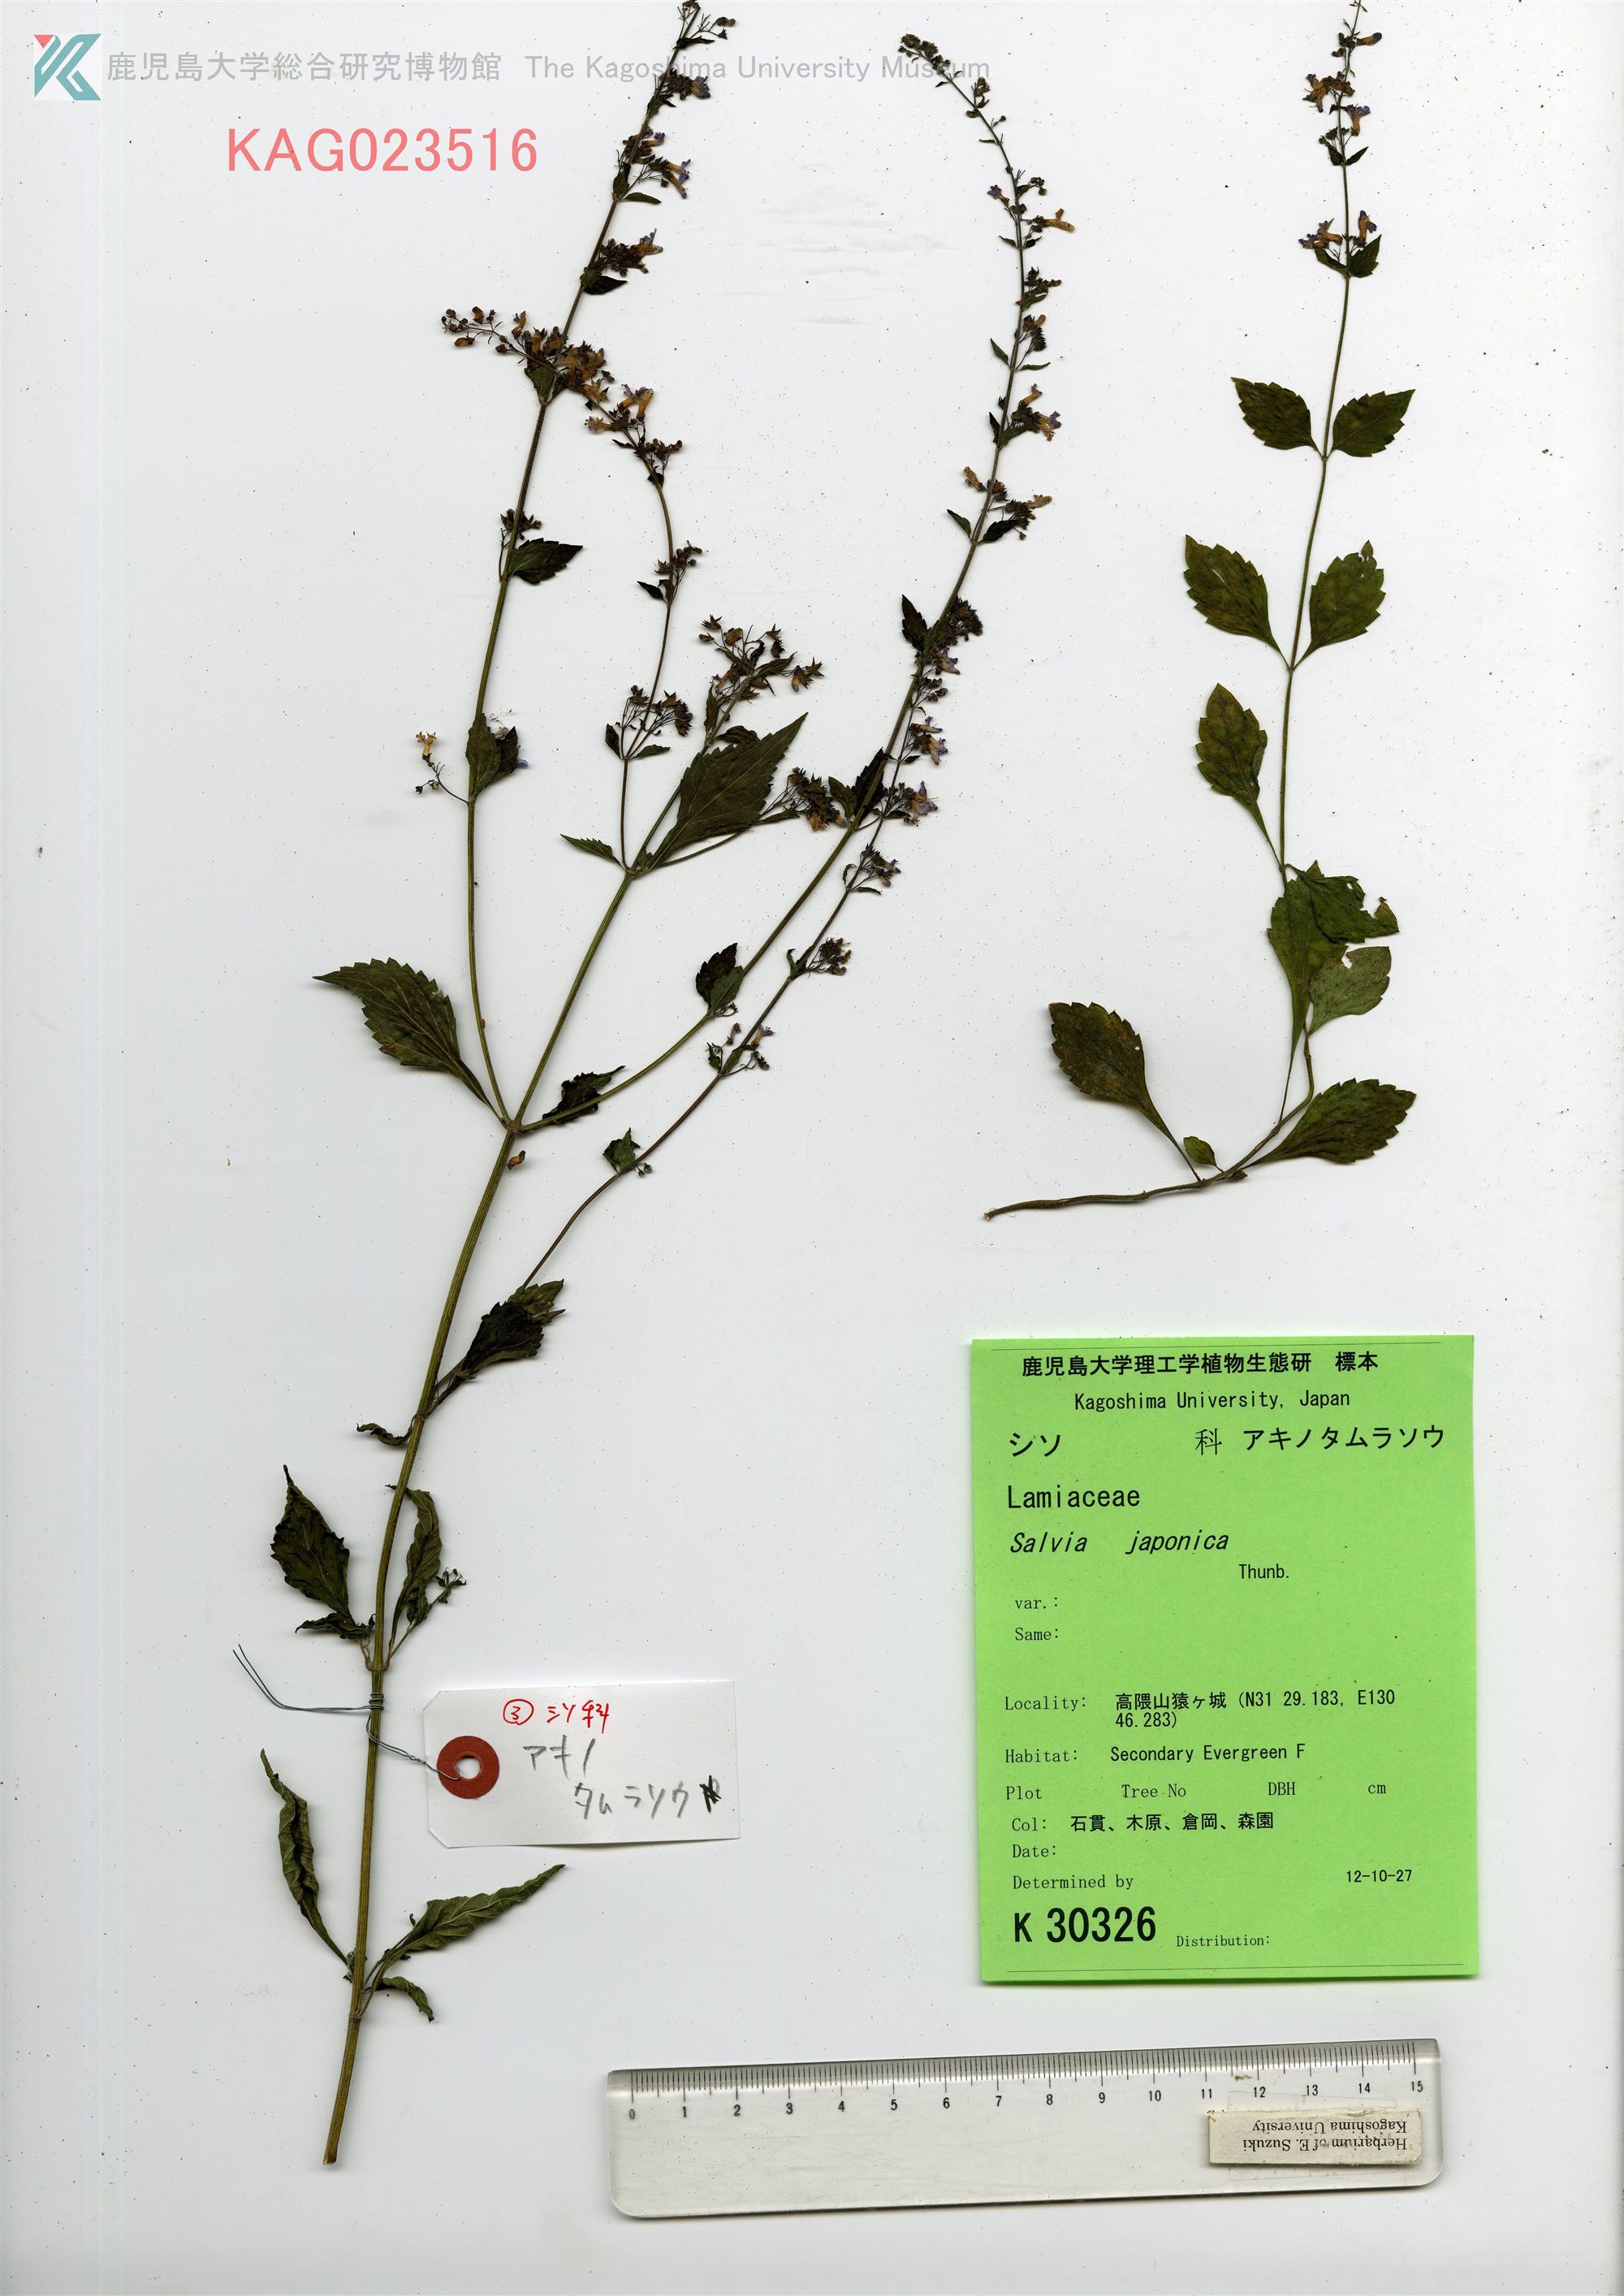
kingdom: Plantae
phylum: Tracheophyta
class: Magnoliopsida
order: Lamiales
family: Lamiaceae
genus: Salvia
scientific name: Salvia japonica
